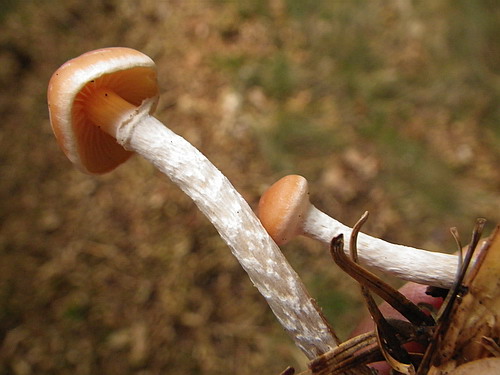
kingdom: Fungi
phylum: Basidiomycota
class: Agaricomycetes
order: Agaricales
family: Strophariaceae
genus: Hypholoma
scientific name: Hypholoma marginatum
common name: enlig svovlhat
